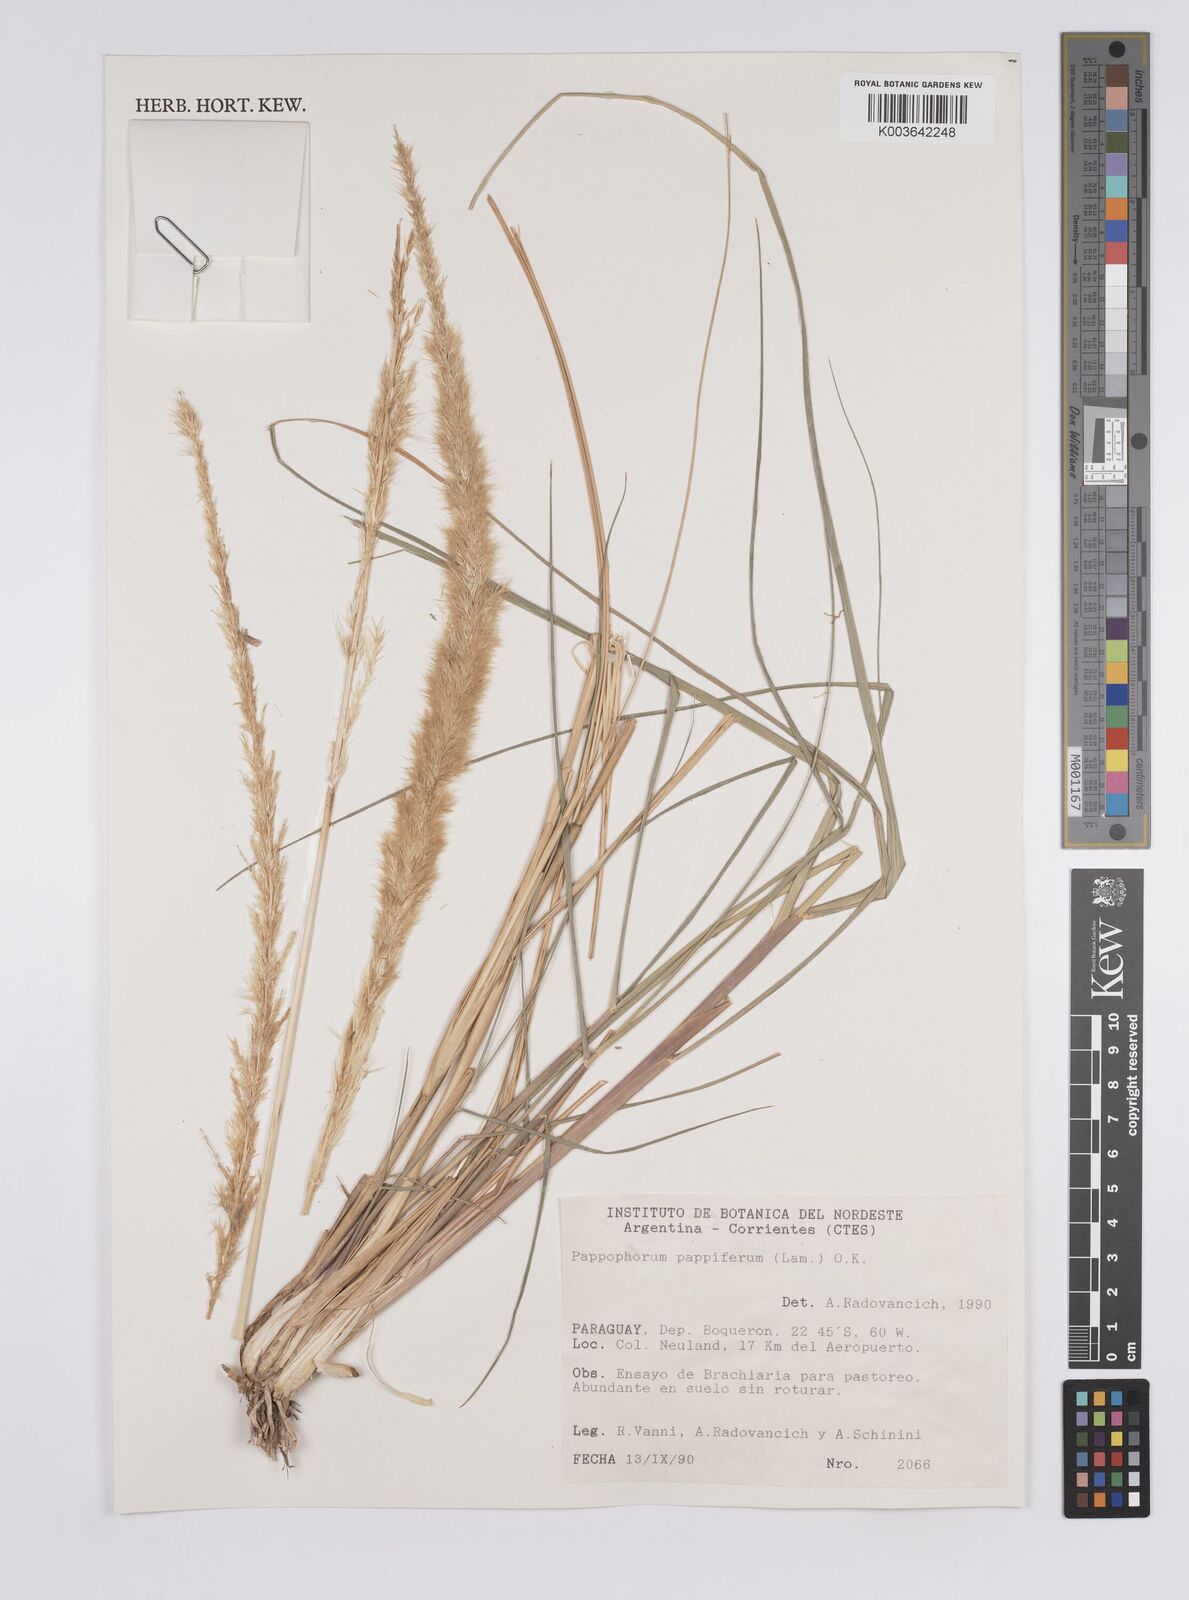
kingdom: Plantae
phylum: Tracheophyta
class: Liliopsida
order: Poales
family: Poaceae
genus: Pappophorum
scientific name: Pappophorum pappiferum
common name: Crabgrass
